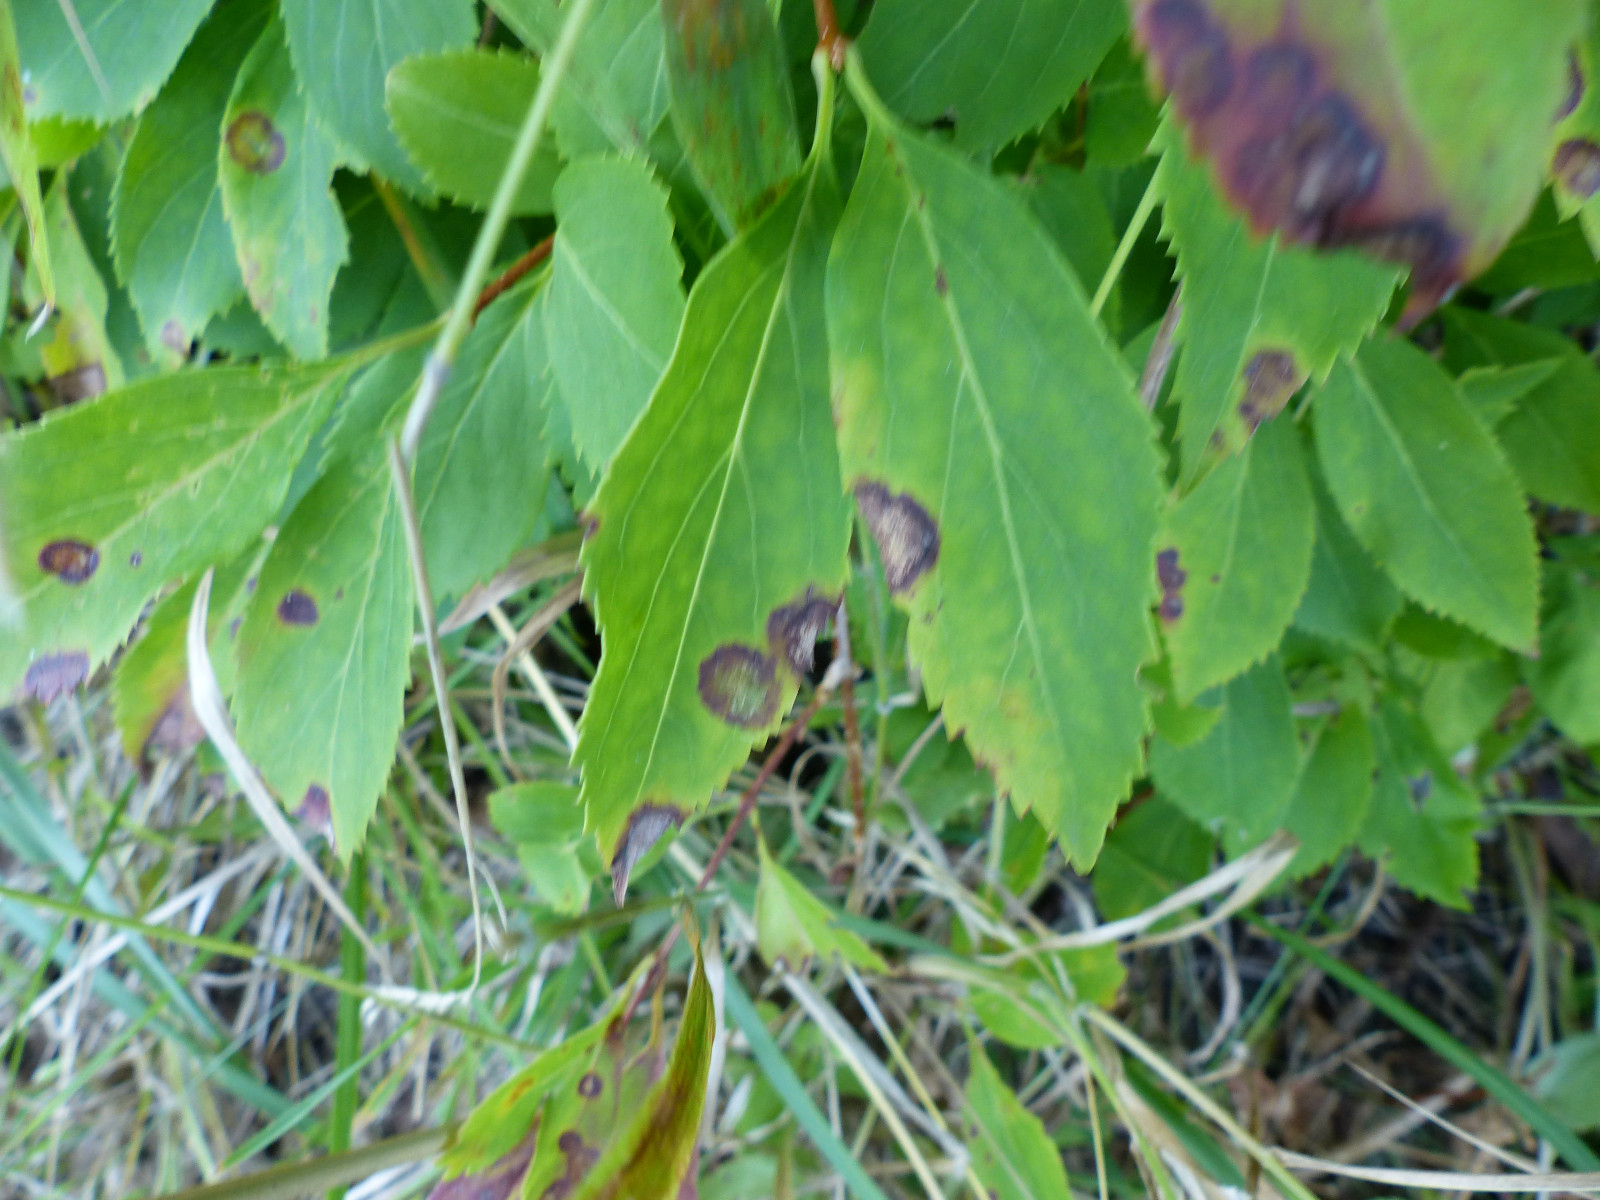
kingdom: Fungi
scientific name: Fungi
